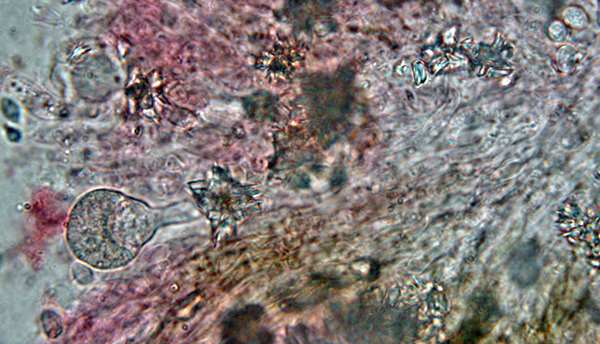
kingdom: Fungi
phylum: Basidiomycota
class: Agaricomycetes
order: Hymenochaetales
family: Rickenellaceae
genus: Resinicium
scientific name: Resinicium bicolor
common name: almindelig vokstand
